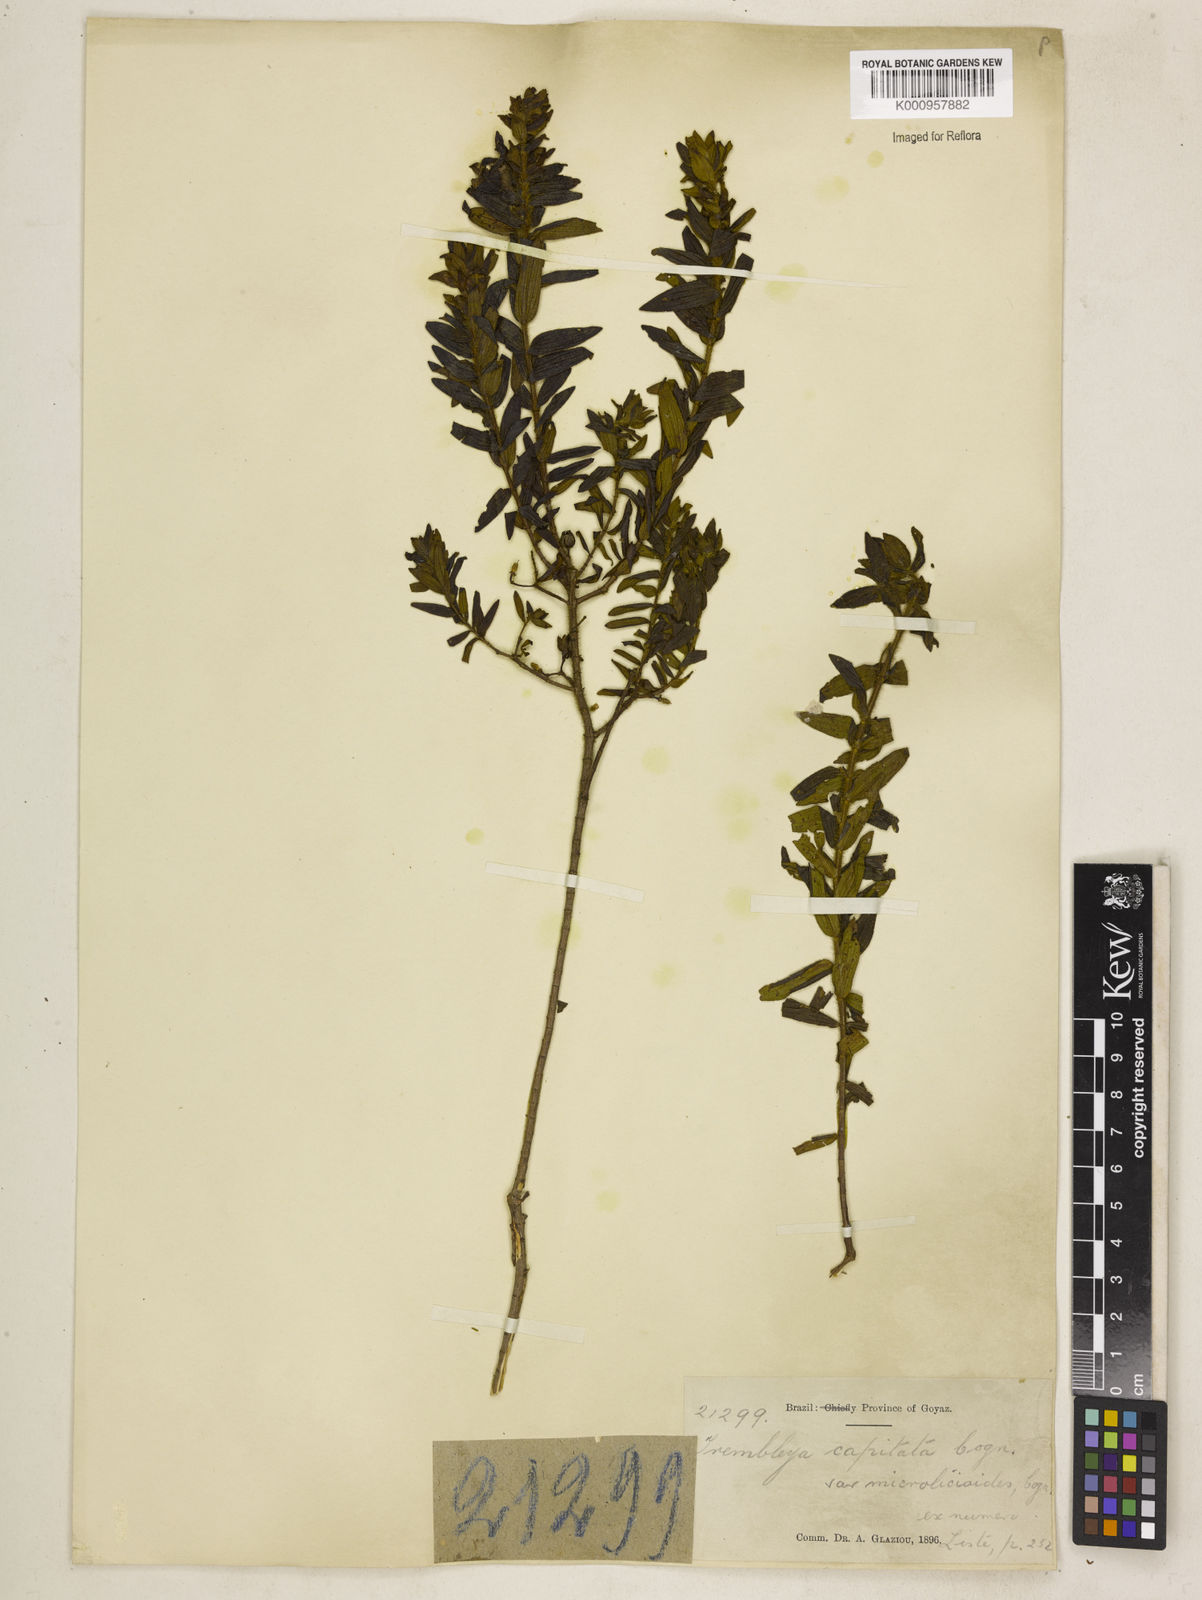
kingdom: Plantae
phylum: Tracheophyta
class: Magnoliopsida
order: Myrtales
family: Melastomataceae
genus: Microlicia
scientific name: Microlicia Trembleya capitata
